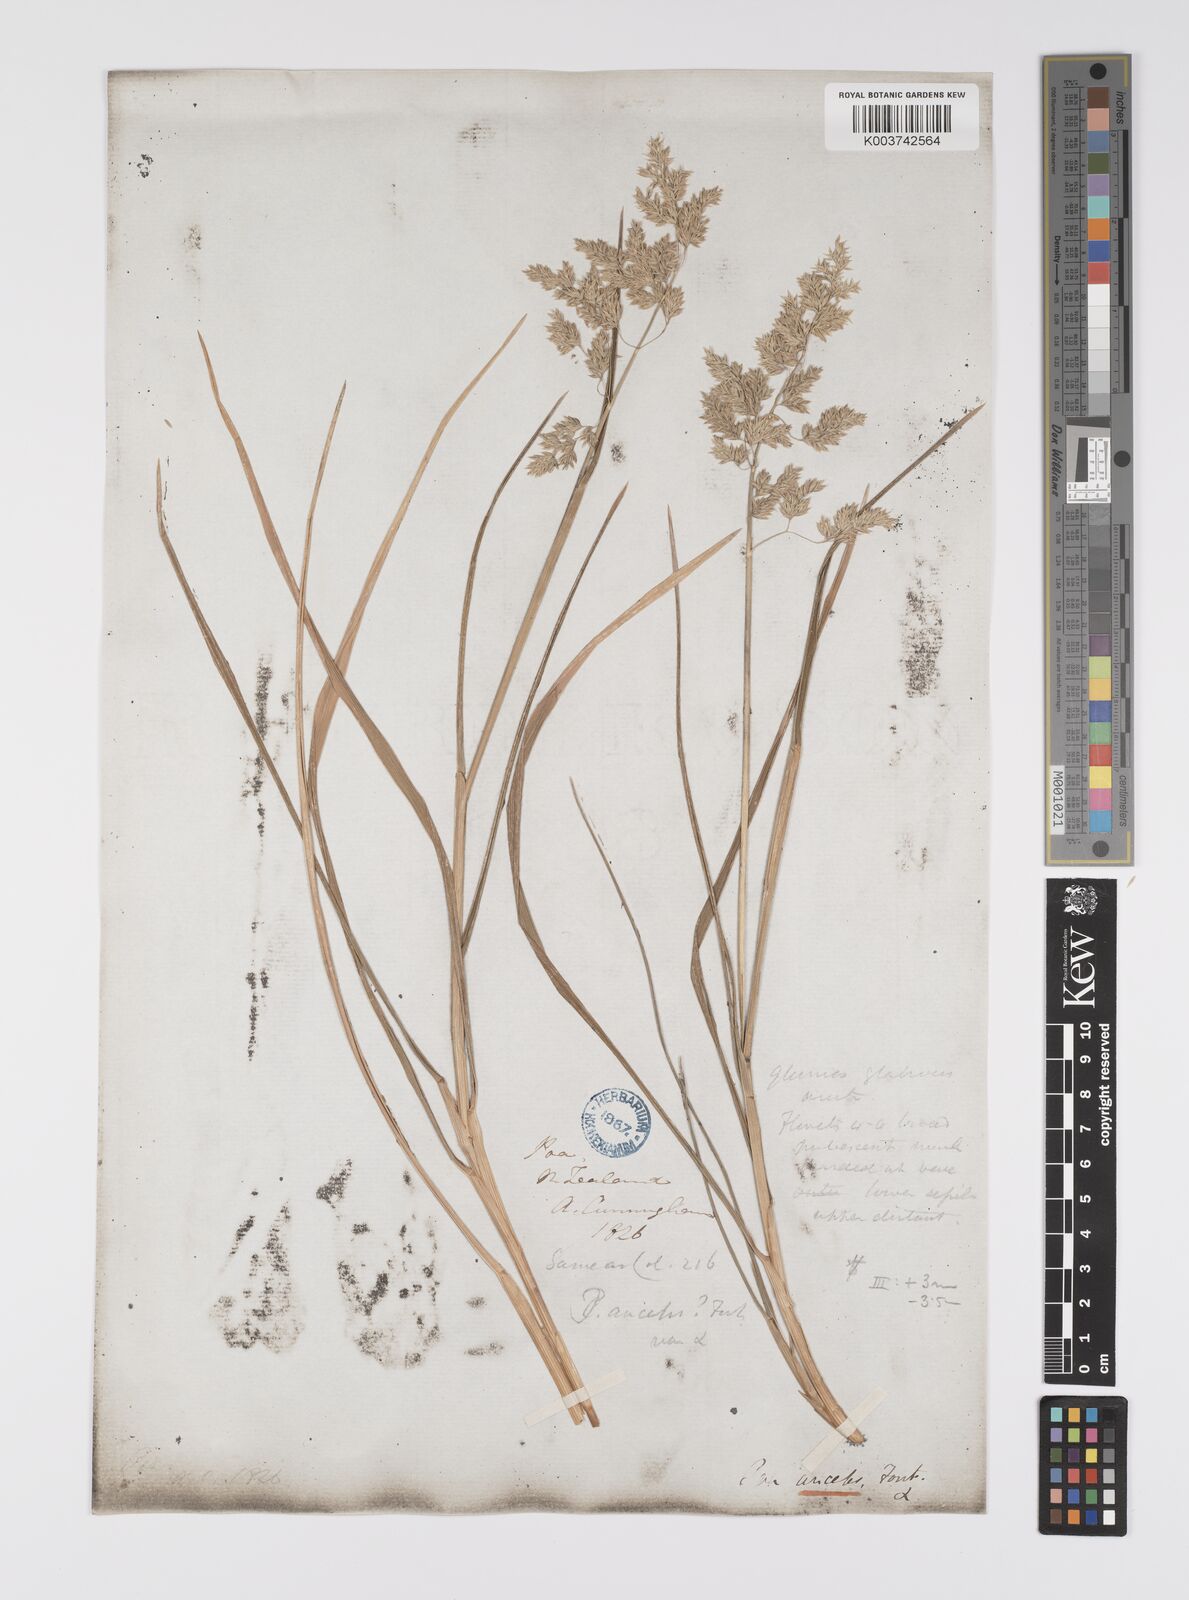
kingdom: Plantae
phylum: Tracheophyta
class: Liliopsida
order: Poales
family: Poaceae
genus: Poa
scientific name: Poa anceps
